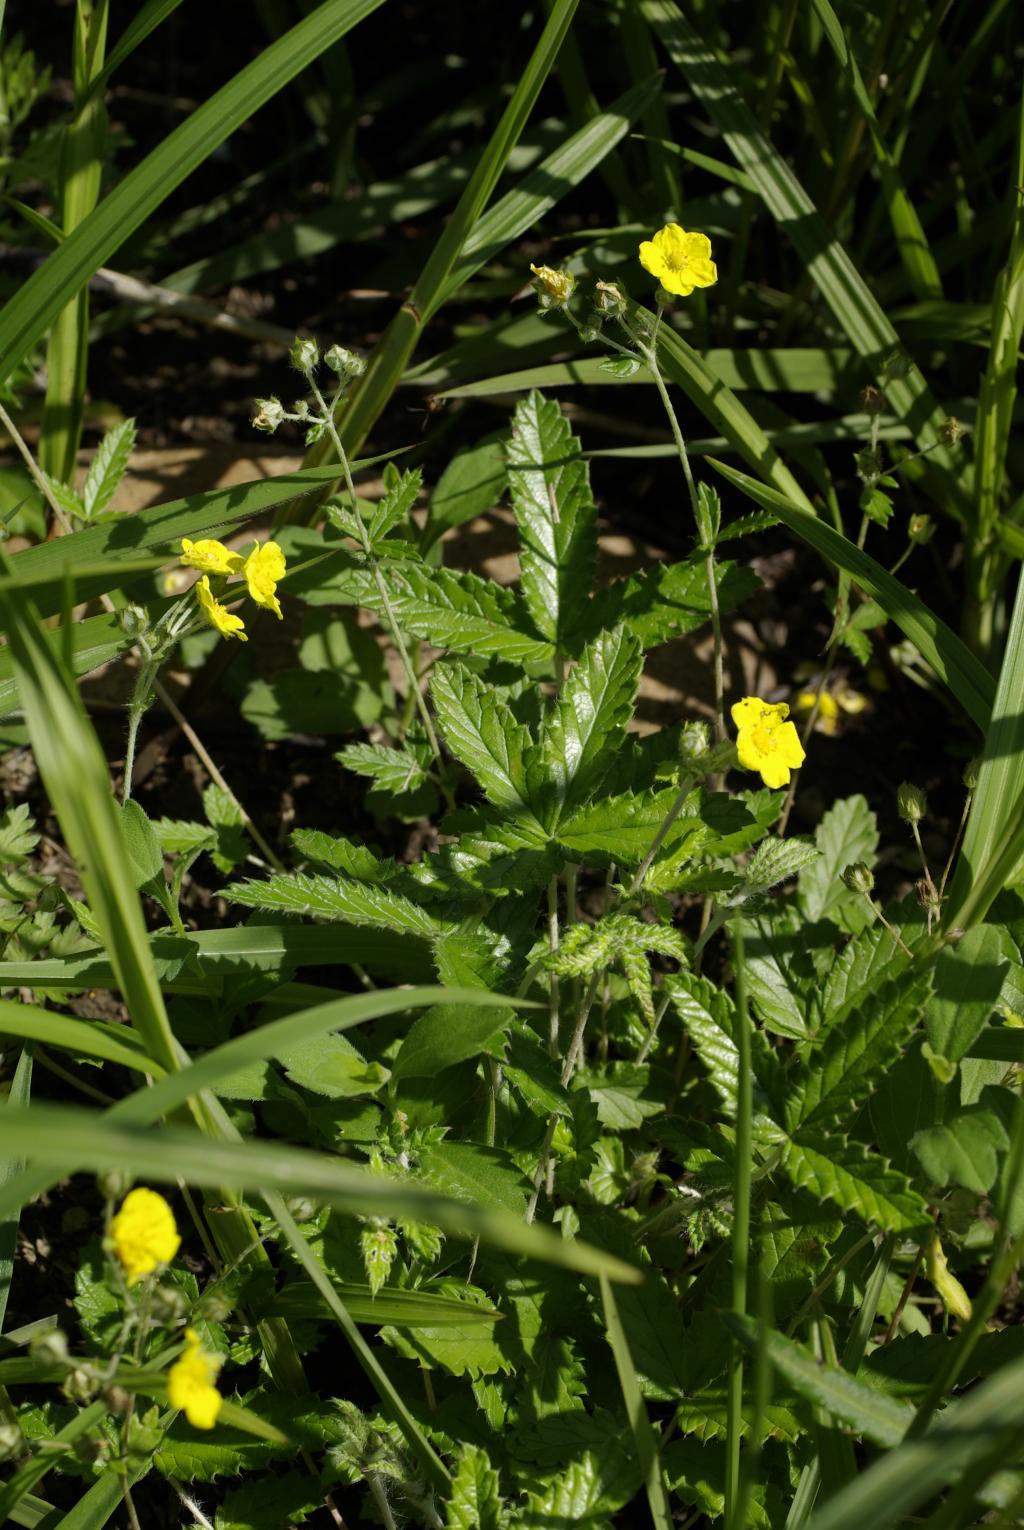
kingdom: Plantae
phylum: Tracheophyta
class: Magnoliopsida
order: Rosales
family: Rosaceae
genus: Potentilla
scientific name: Potentilla discolor
